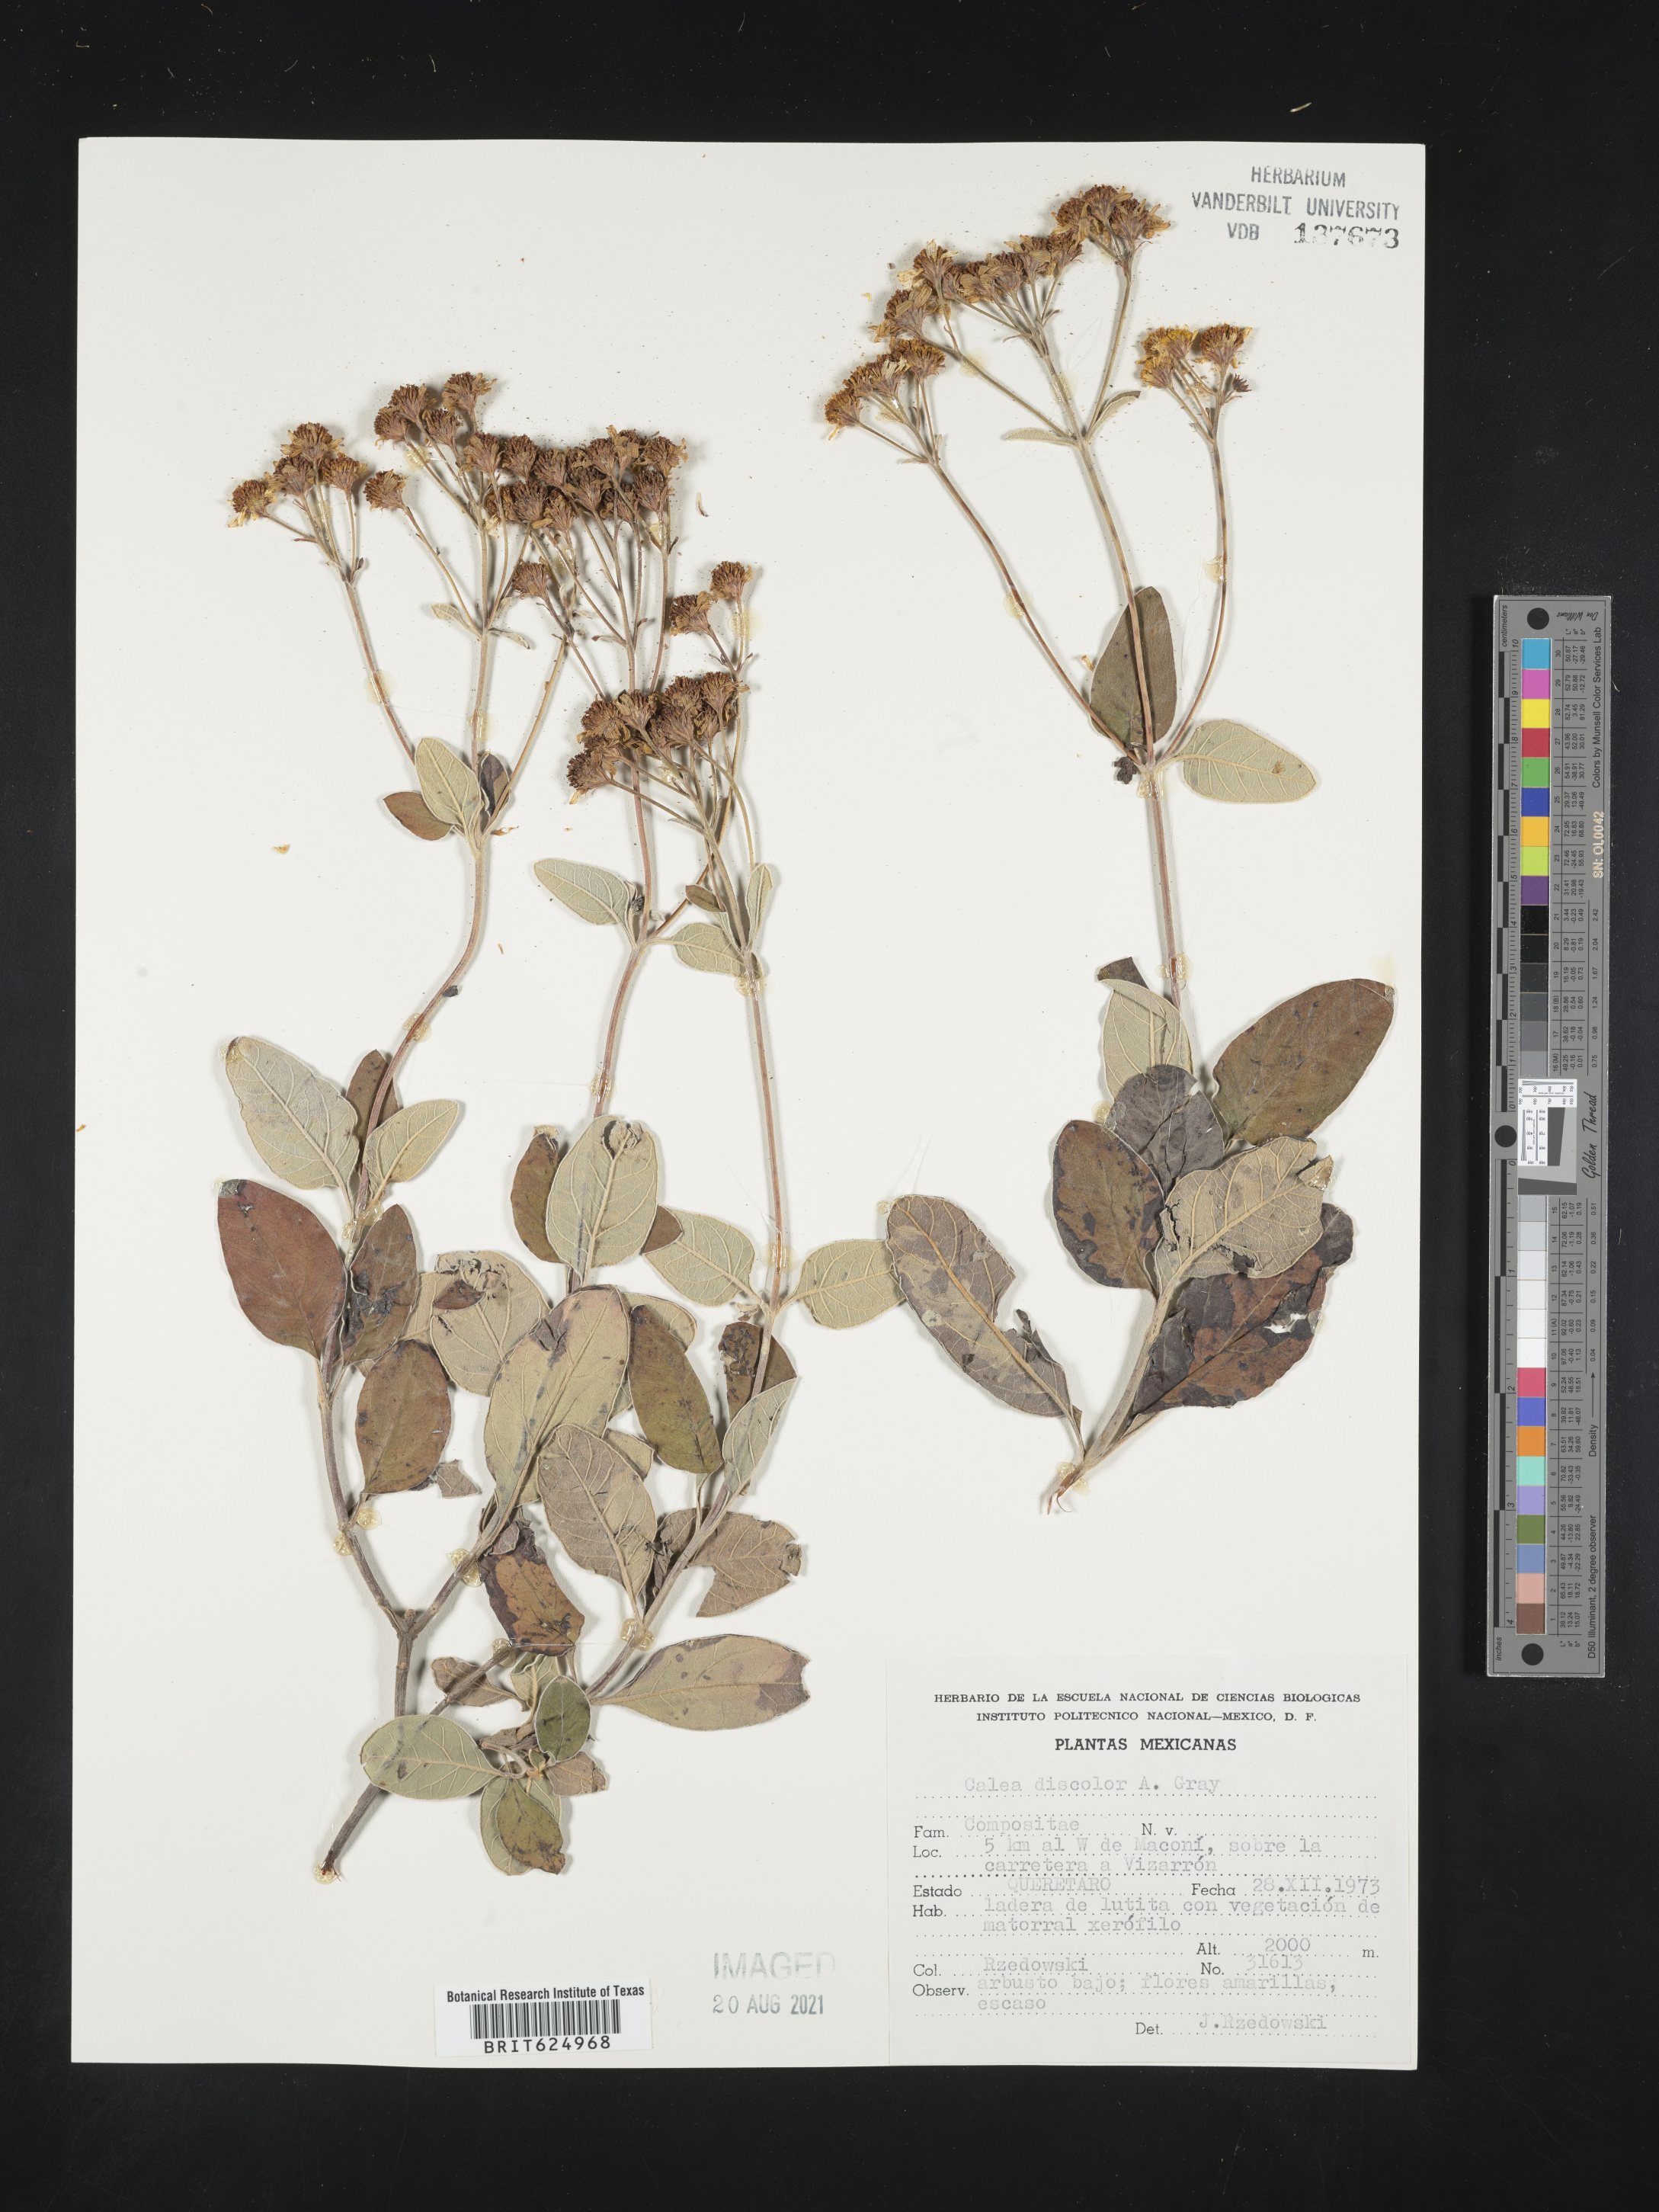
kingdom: Plantae
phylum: Tracheophyta
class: Magnoliopsida
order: Asterales
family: Asteraceae
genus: Tetrachyron
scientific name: Tetrachyron discolor
